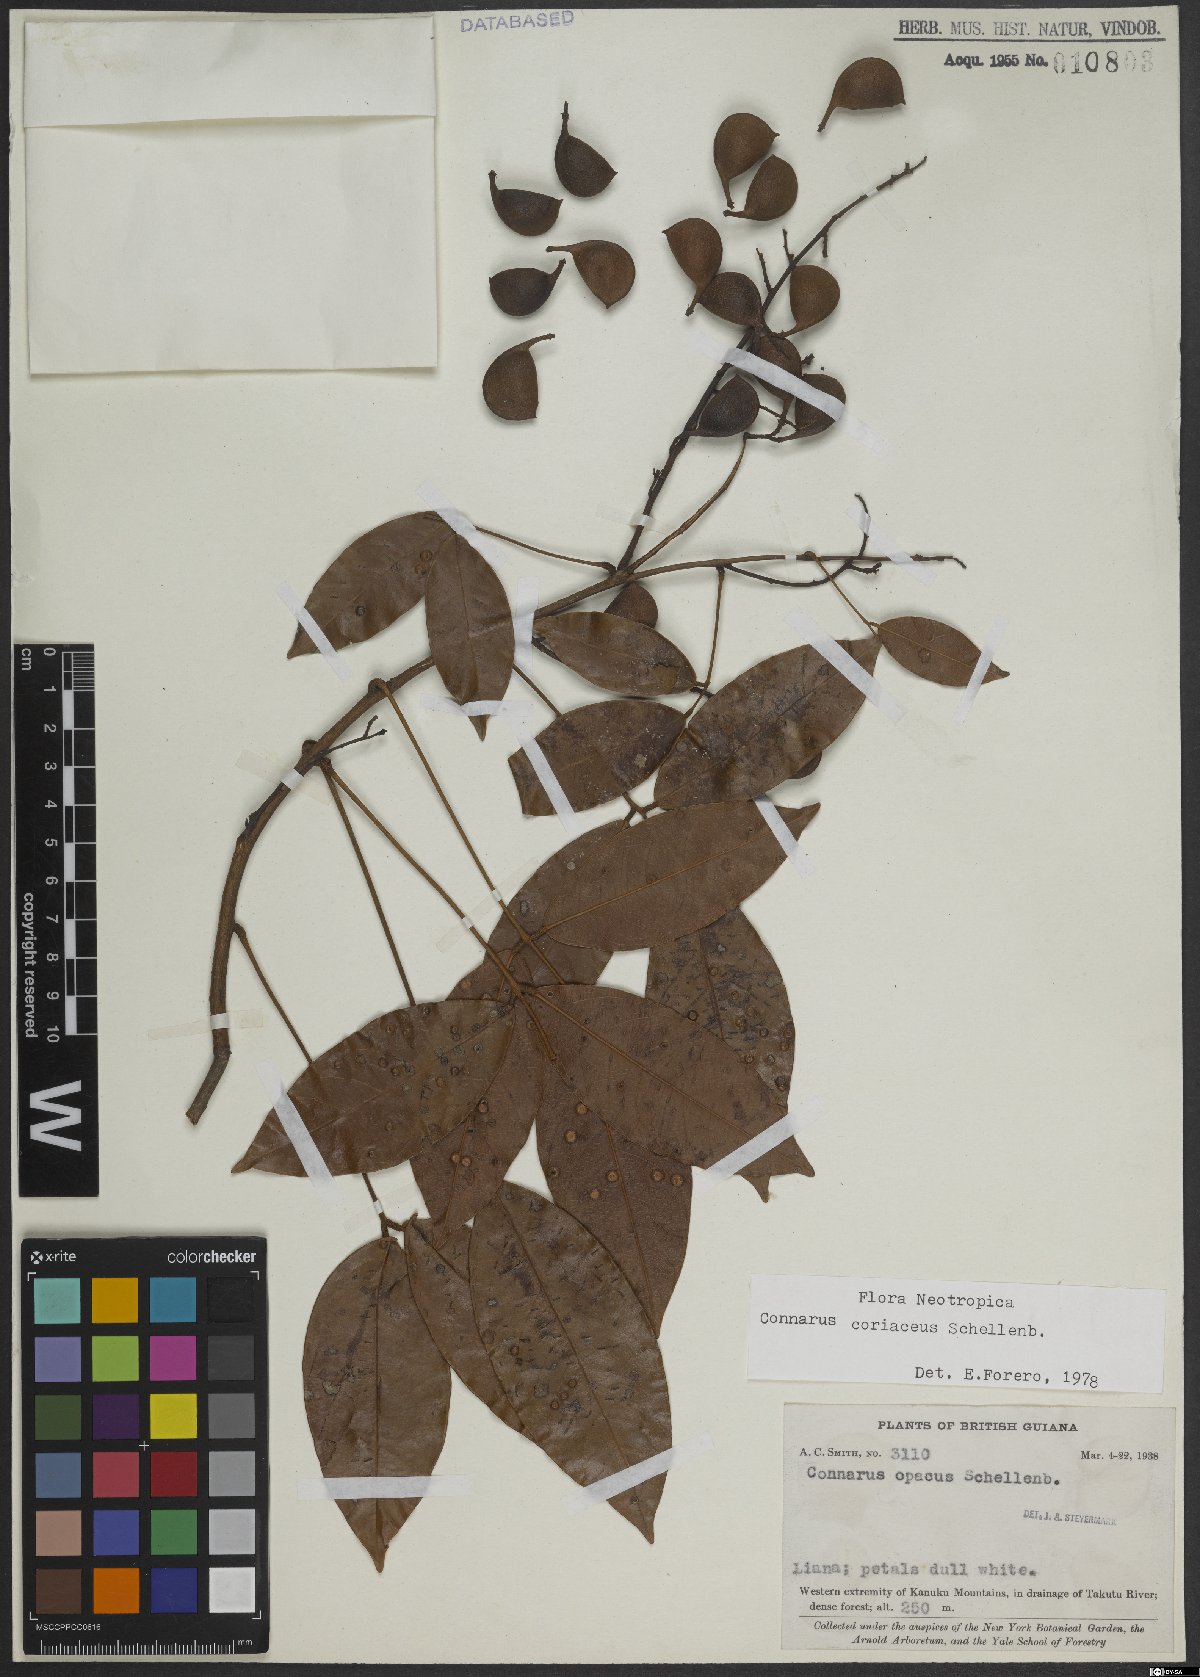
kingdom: Plantae
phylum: Tracheophyta
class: Magnoliopsida
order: Oxalidales
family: Connaraceae
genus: Connarus
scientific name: Connarus coriaceus
